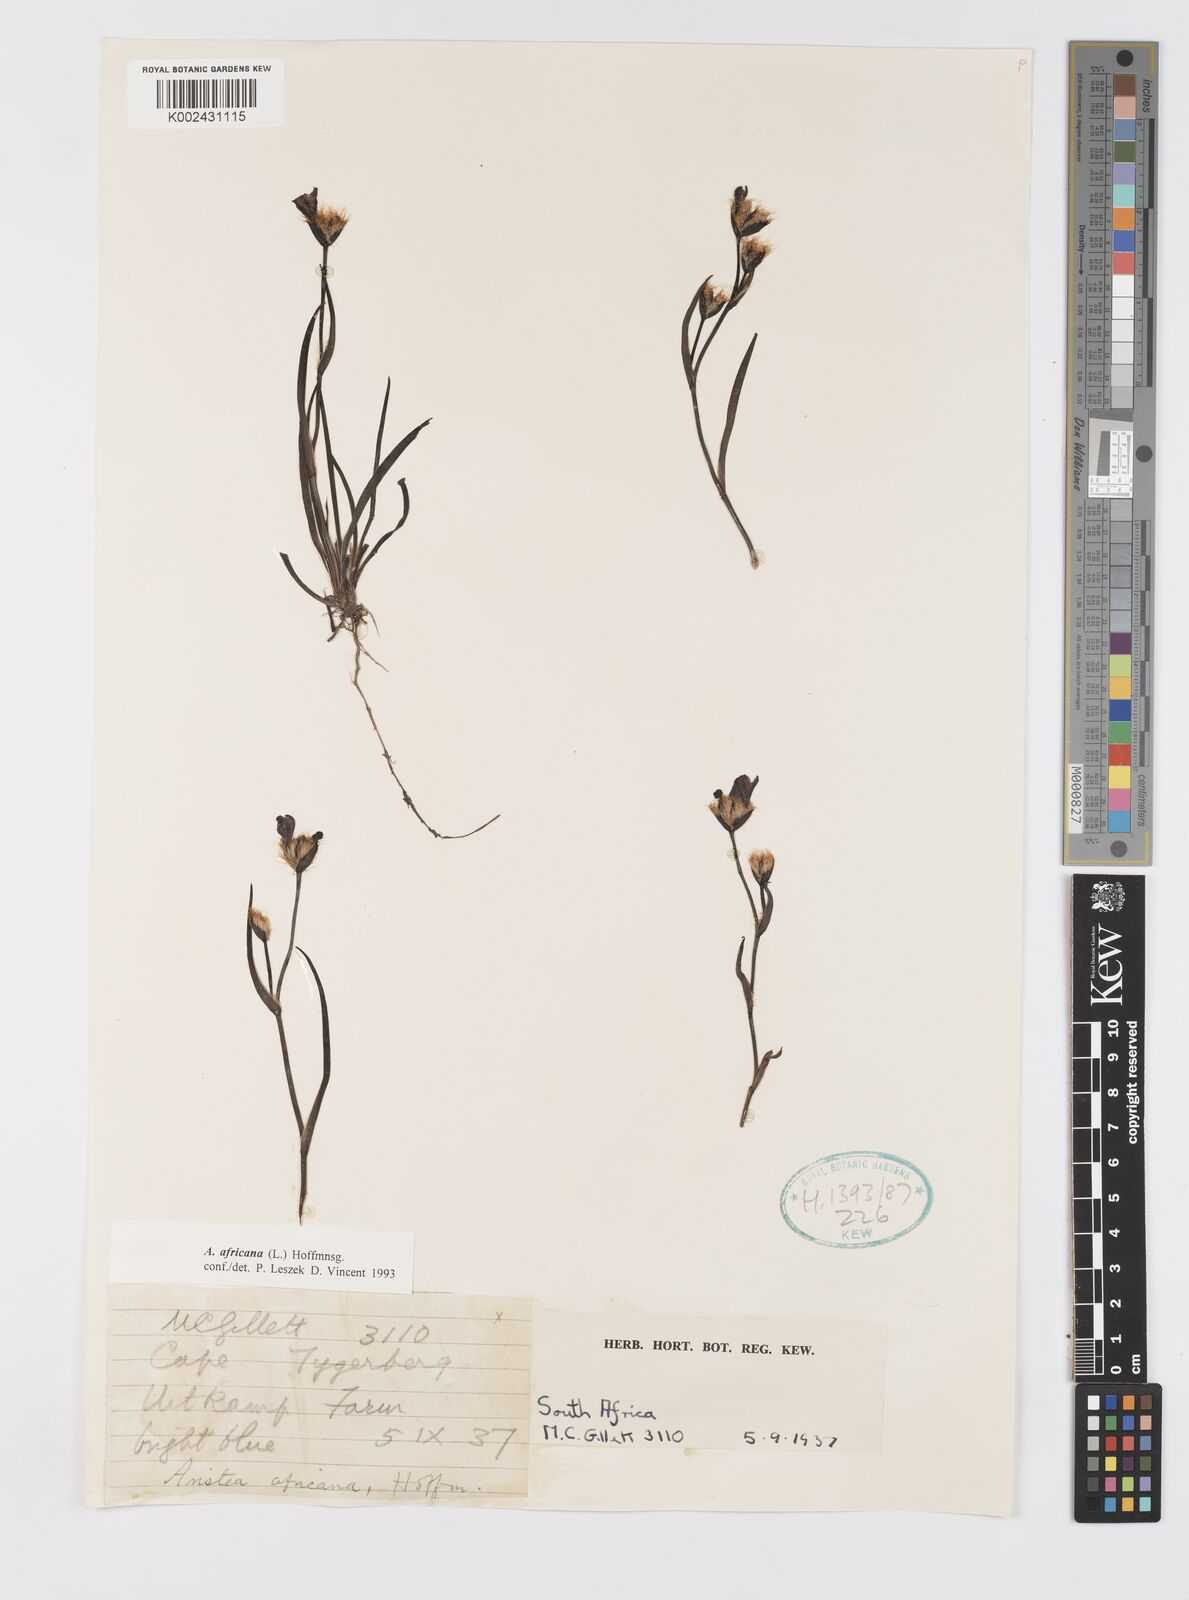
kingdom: Plantae
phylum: Tracheophyta
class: Liliopsida
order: Asparagales
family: Iridaceae
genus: Aristea
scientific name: Aristea africana
